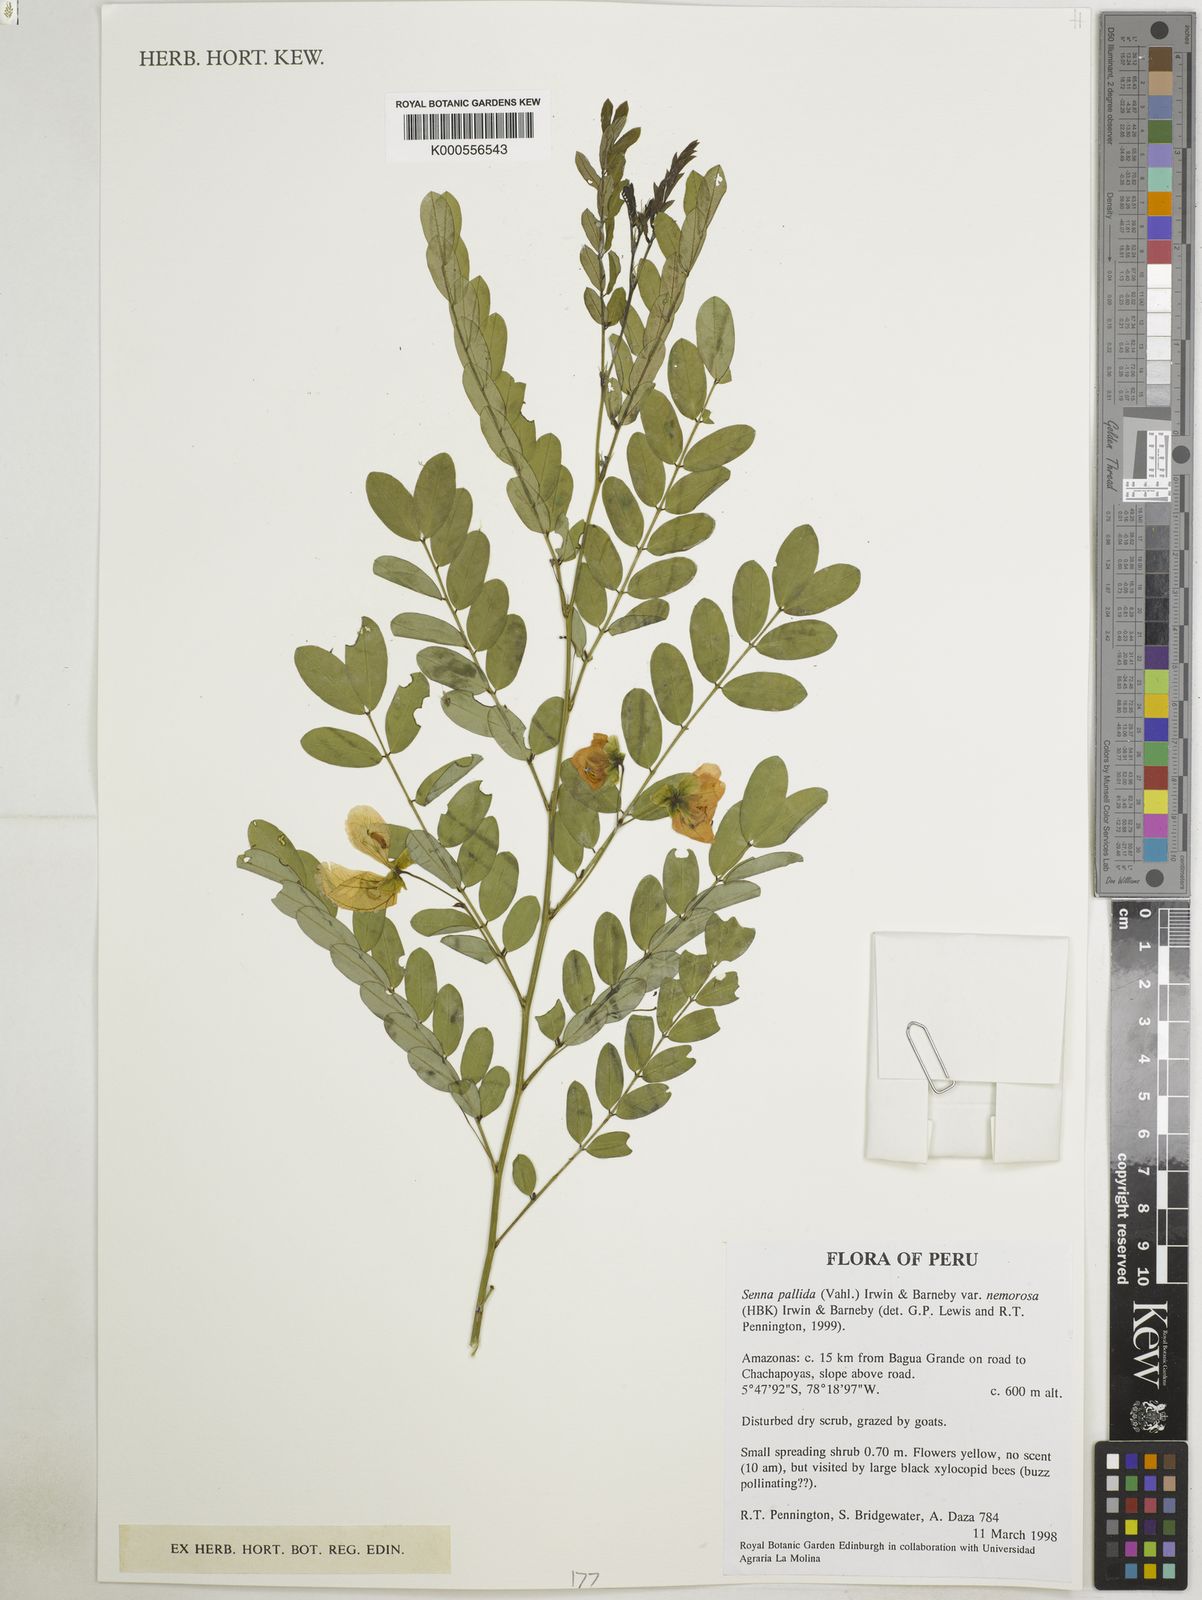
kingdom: Plantae
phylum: Tracheophyta
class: Magnoliopsida
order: Fabales
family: Fabaceae
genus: Senna
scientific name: Senna pallida
